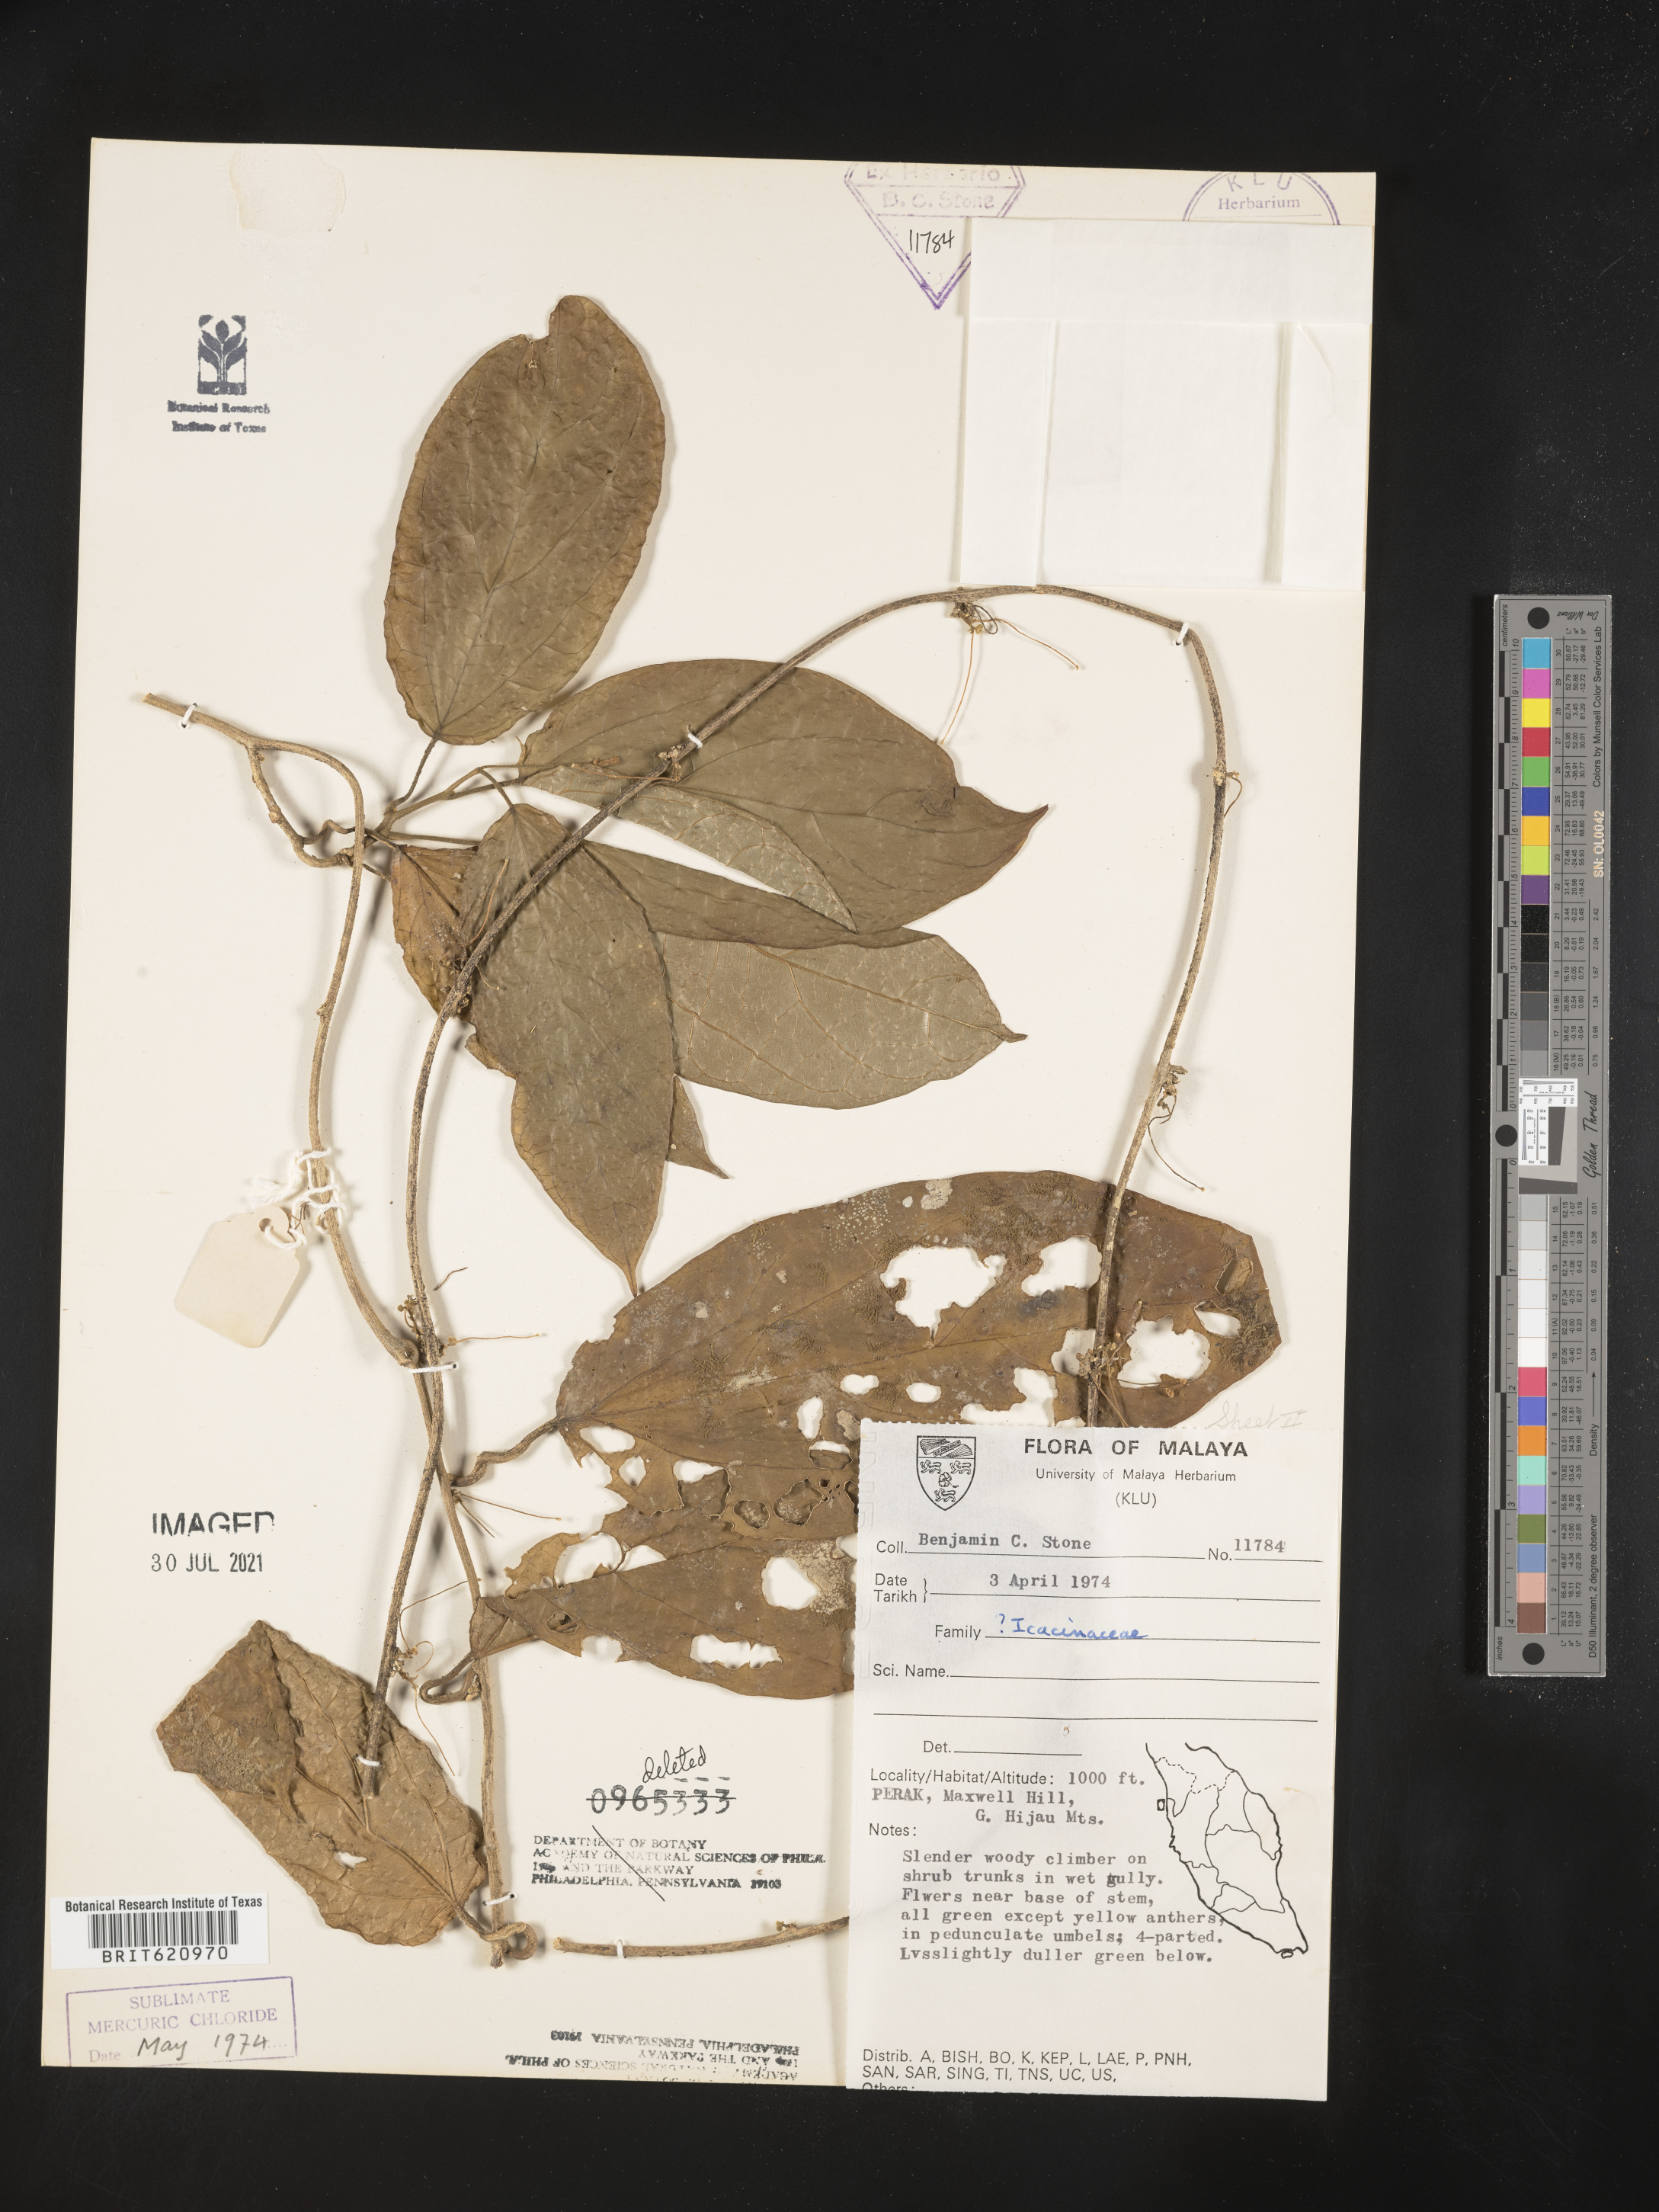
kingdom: Plantae
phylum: Tracheophyta
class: Magnoliopsida
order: Icacinales
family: Icacinaceae
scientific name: Icacinaceae
